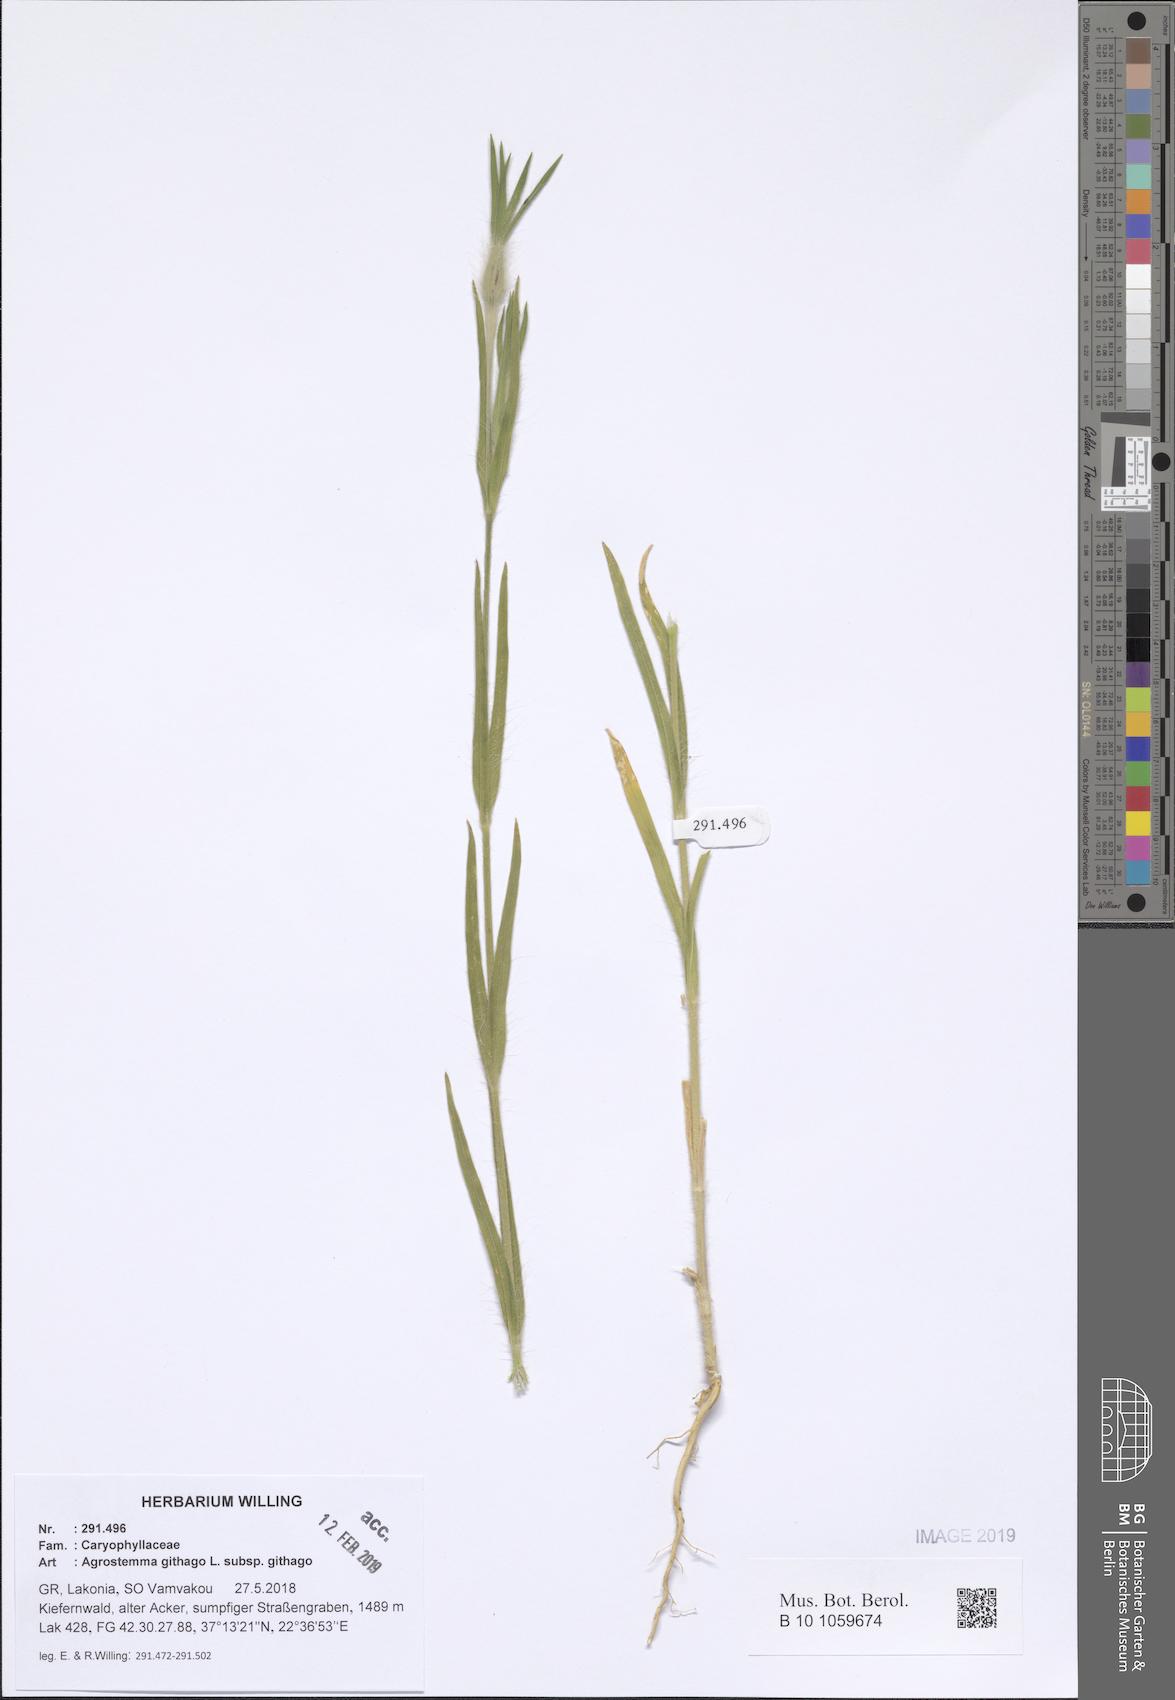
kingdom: Plantae
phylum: Tracheophyta
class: Magnoliopsida
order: Caryophyllales
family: Caryophyllaceae
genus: Agrostemma
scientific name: Agrostemma githago
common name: Common corncockle
